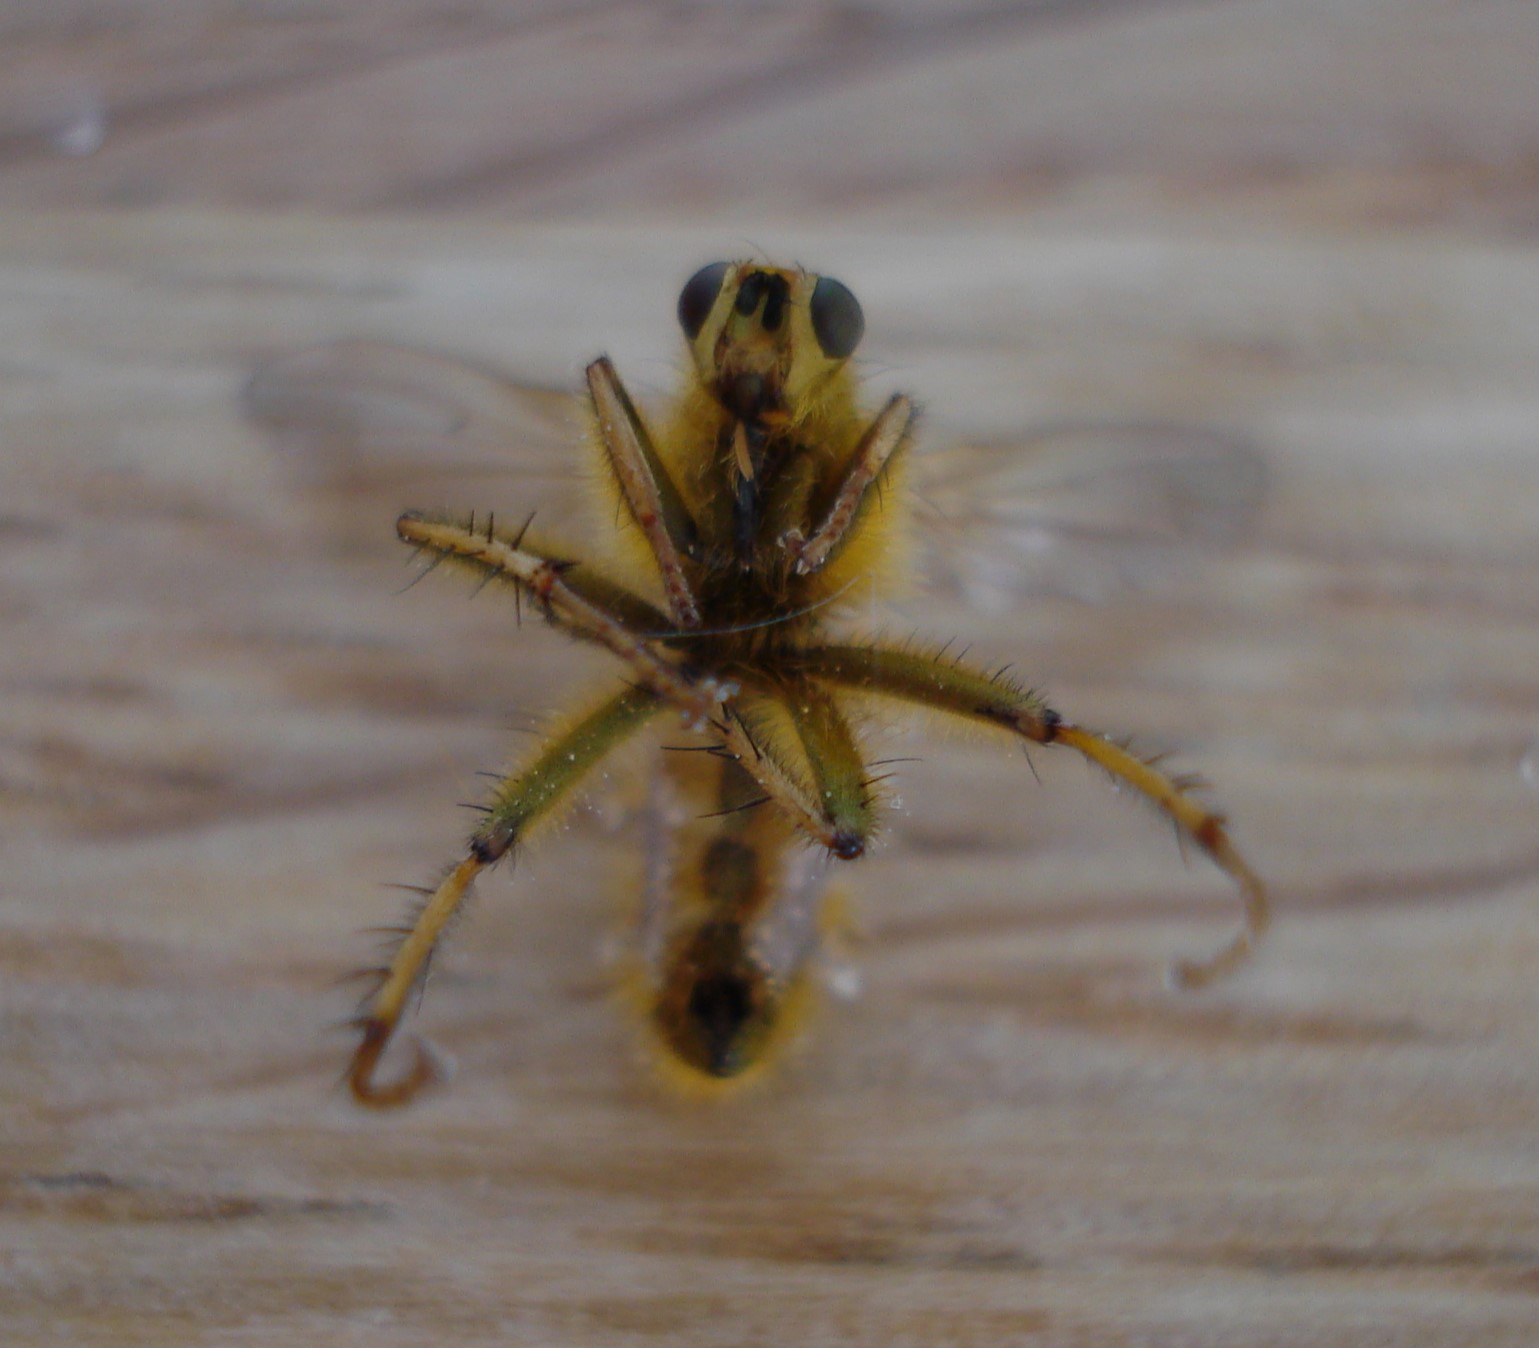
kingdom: Animalia
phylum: Arthropoda
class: Insecta
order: Diptera
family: Scathophagidae
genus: Scathophaga
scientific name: Scathophaga stercoraria
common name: Almindelig gødningsflue
